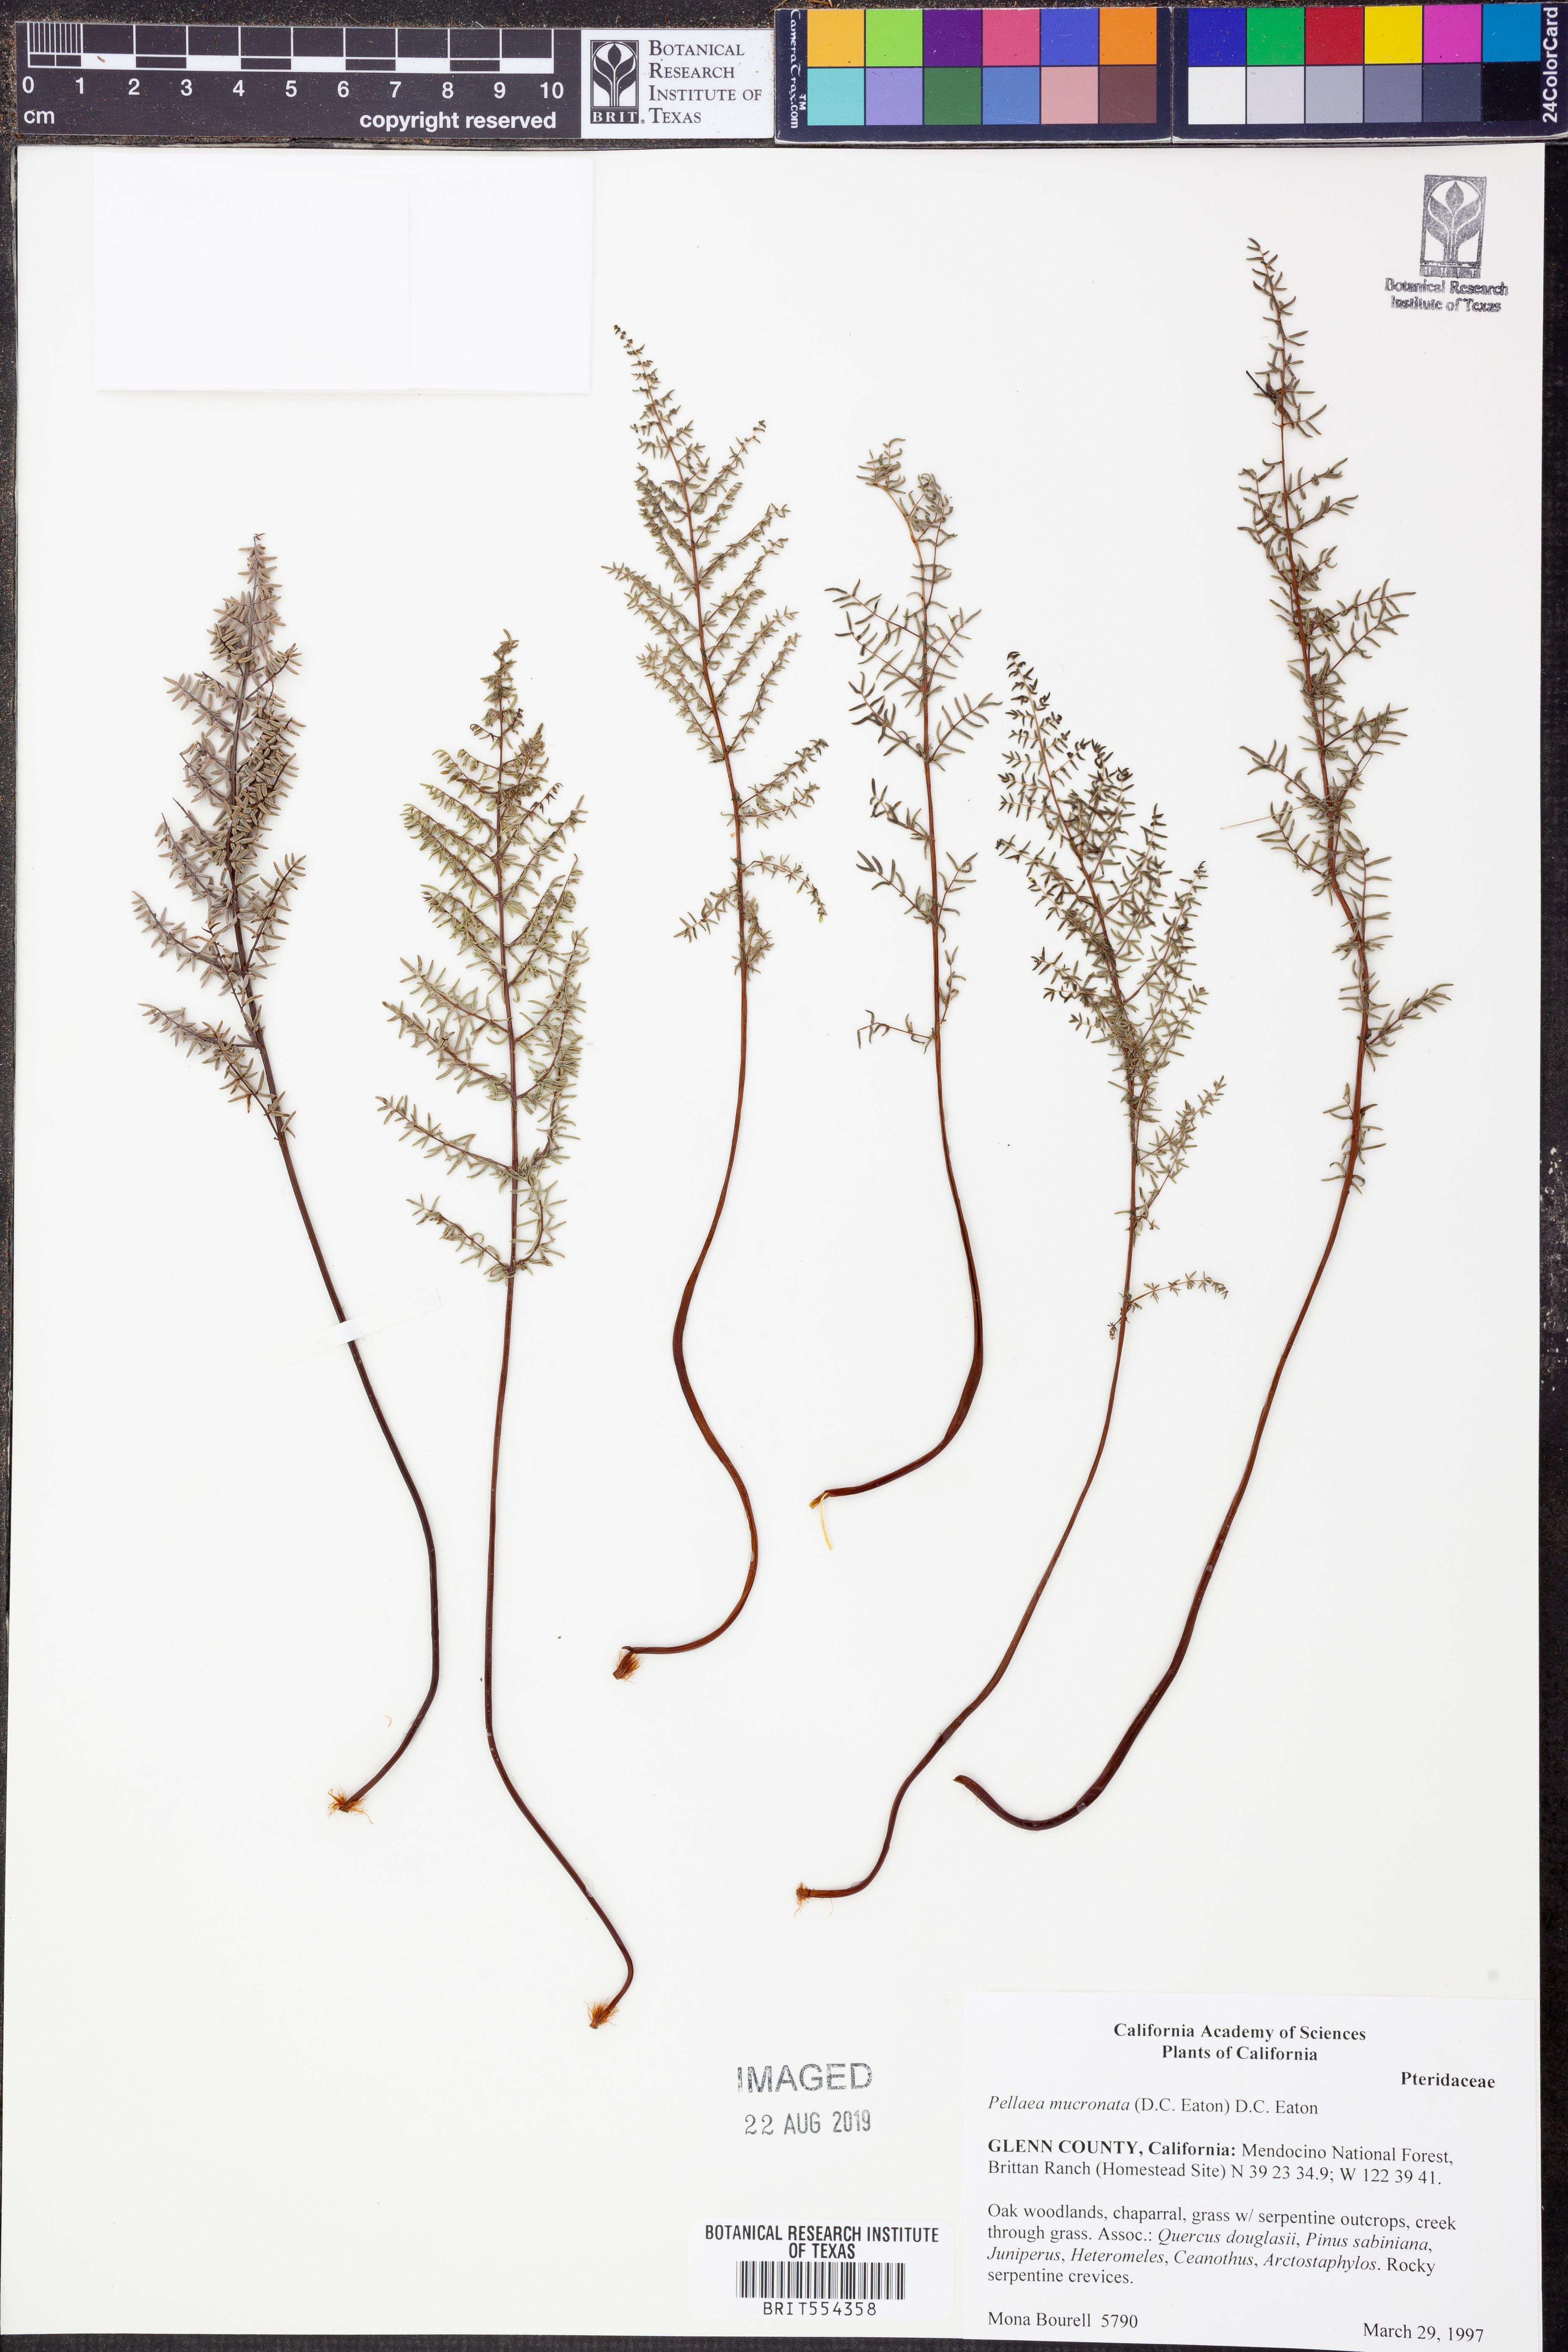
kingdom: Plantae
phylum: Tracheophyta
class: Polypodiopsida
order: Polypodiales
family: Pteridaceae
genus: Pellaea
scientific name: Pellaea atropurpurea
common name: Hairy cliffbrake
